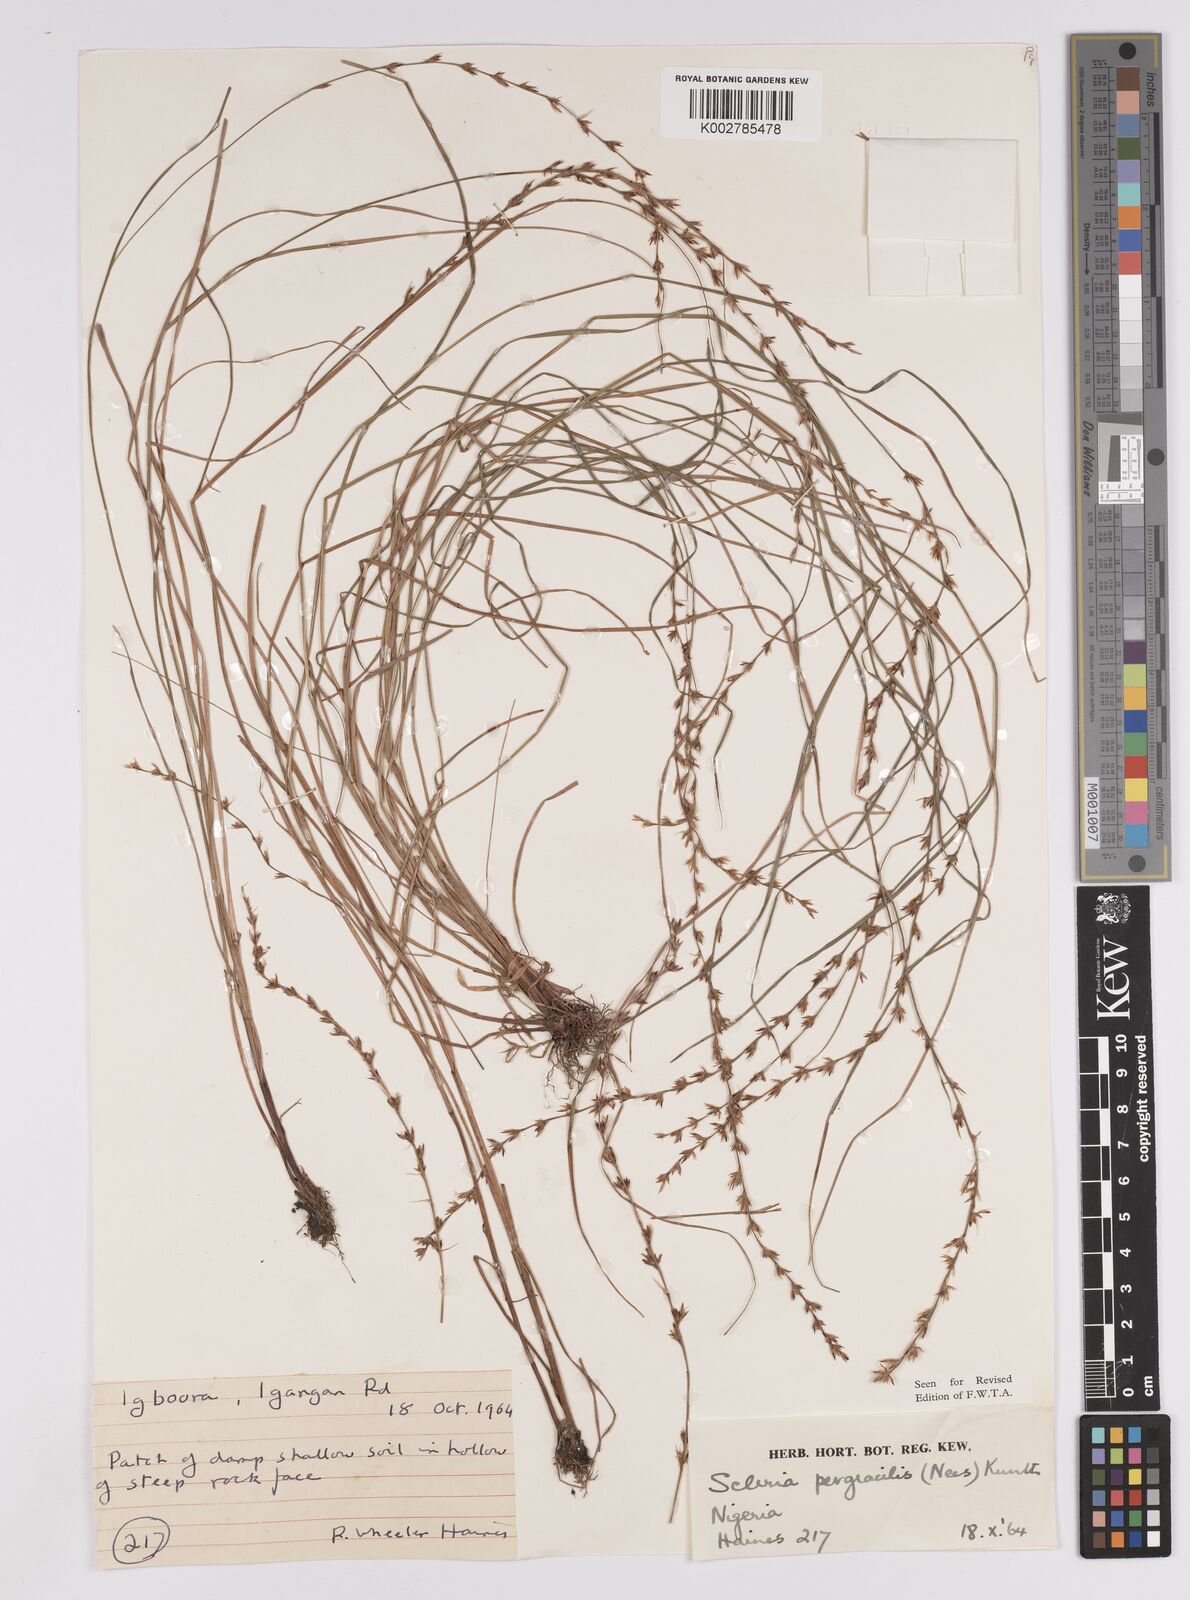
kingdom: Plantae
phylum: Tracheophyta
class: Liliopsida
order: Poales
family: Cyperaceae
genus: Scleria
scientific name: Scleria pergracilis
